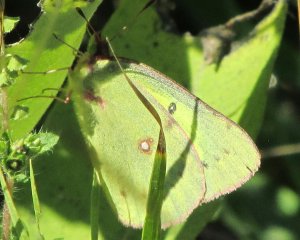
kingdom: Animalia
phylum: Arthropoda
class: Insecta
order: Lepidoptera
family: Pieridae
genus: Colias
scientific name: Colias philodice
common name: Clouded Sulphur
